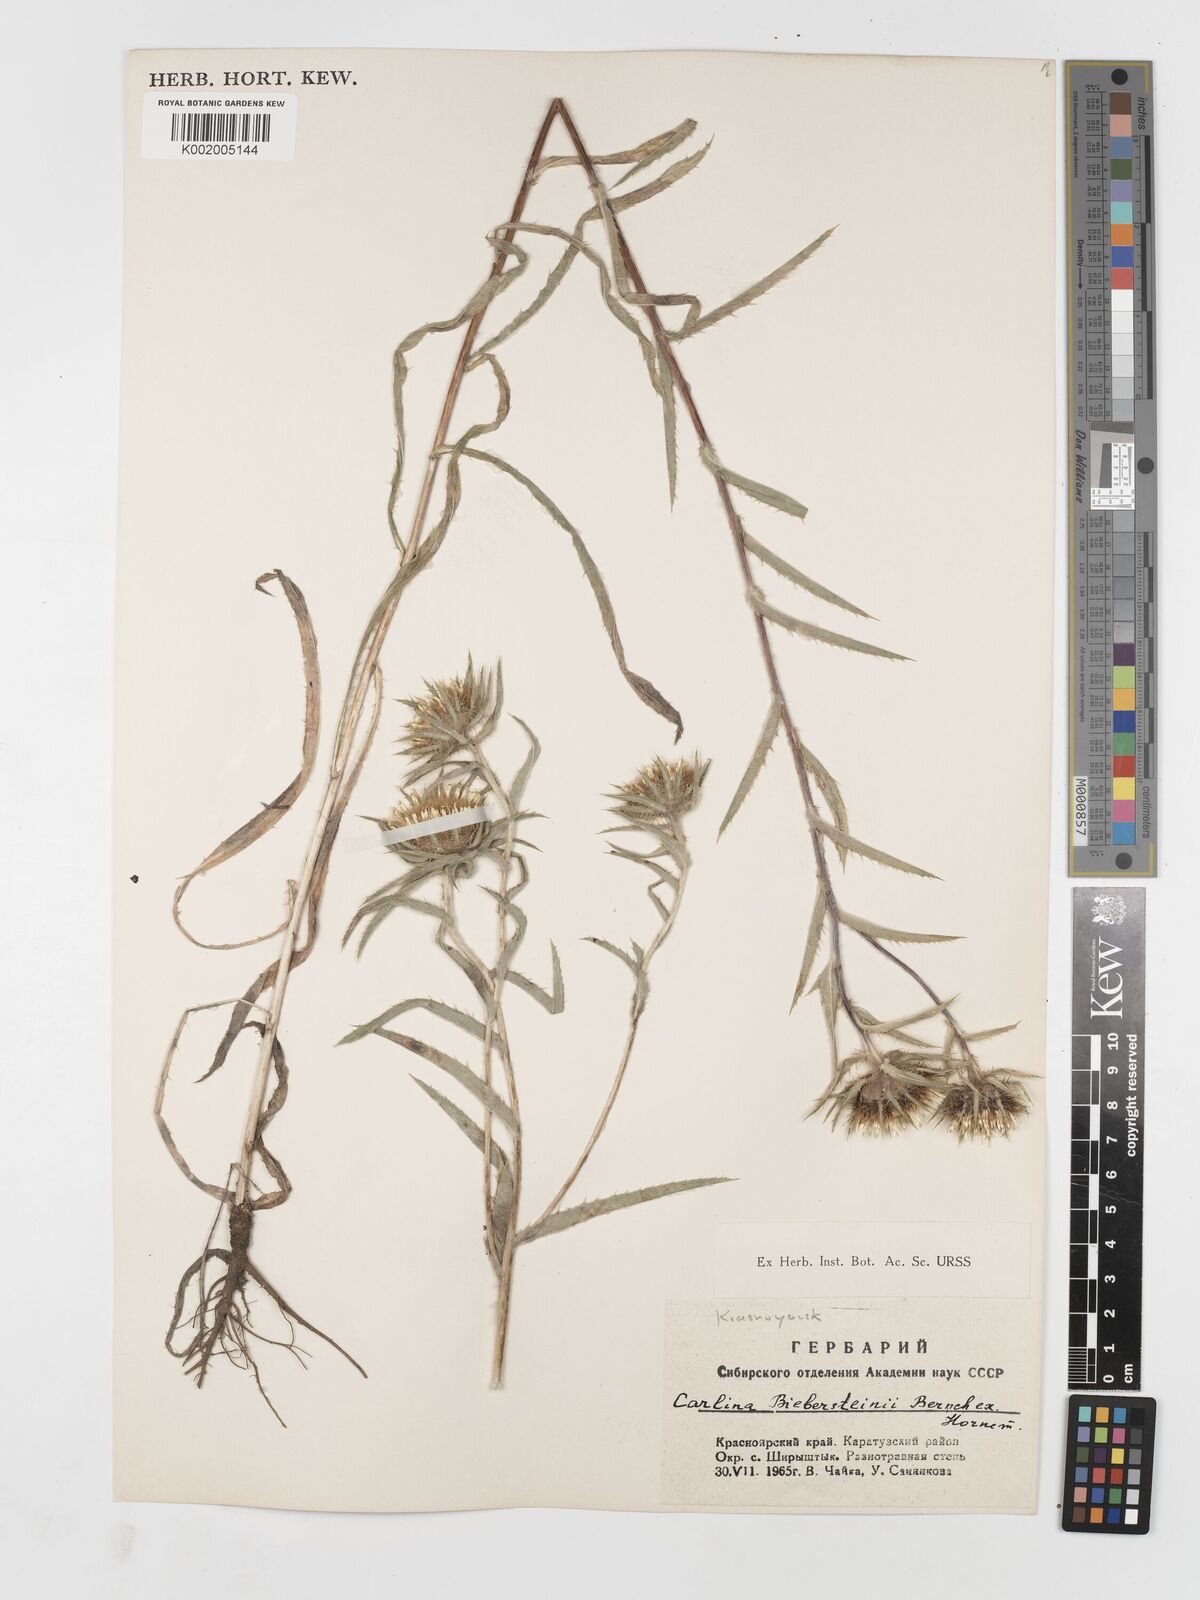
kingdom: Plantae
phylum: Tracheophyta
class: Magnoliopsida
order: Asterales
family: Asteraceae
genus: Carlina
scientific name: Carlina biebersteinii
